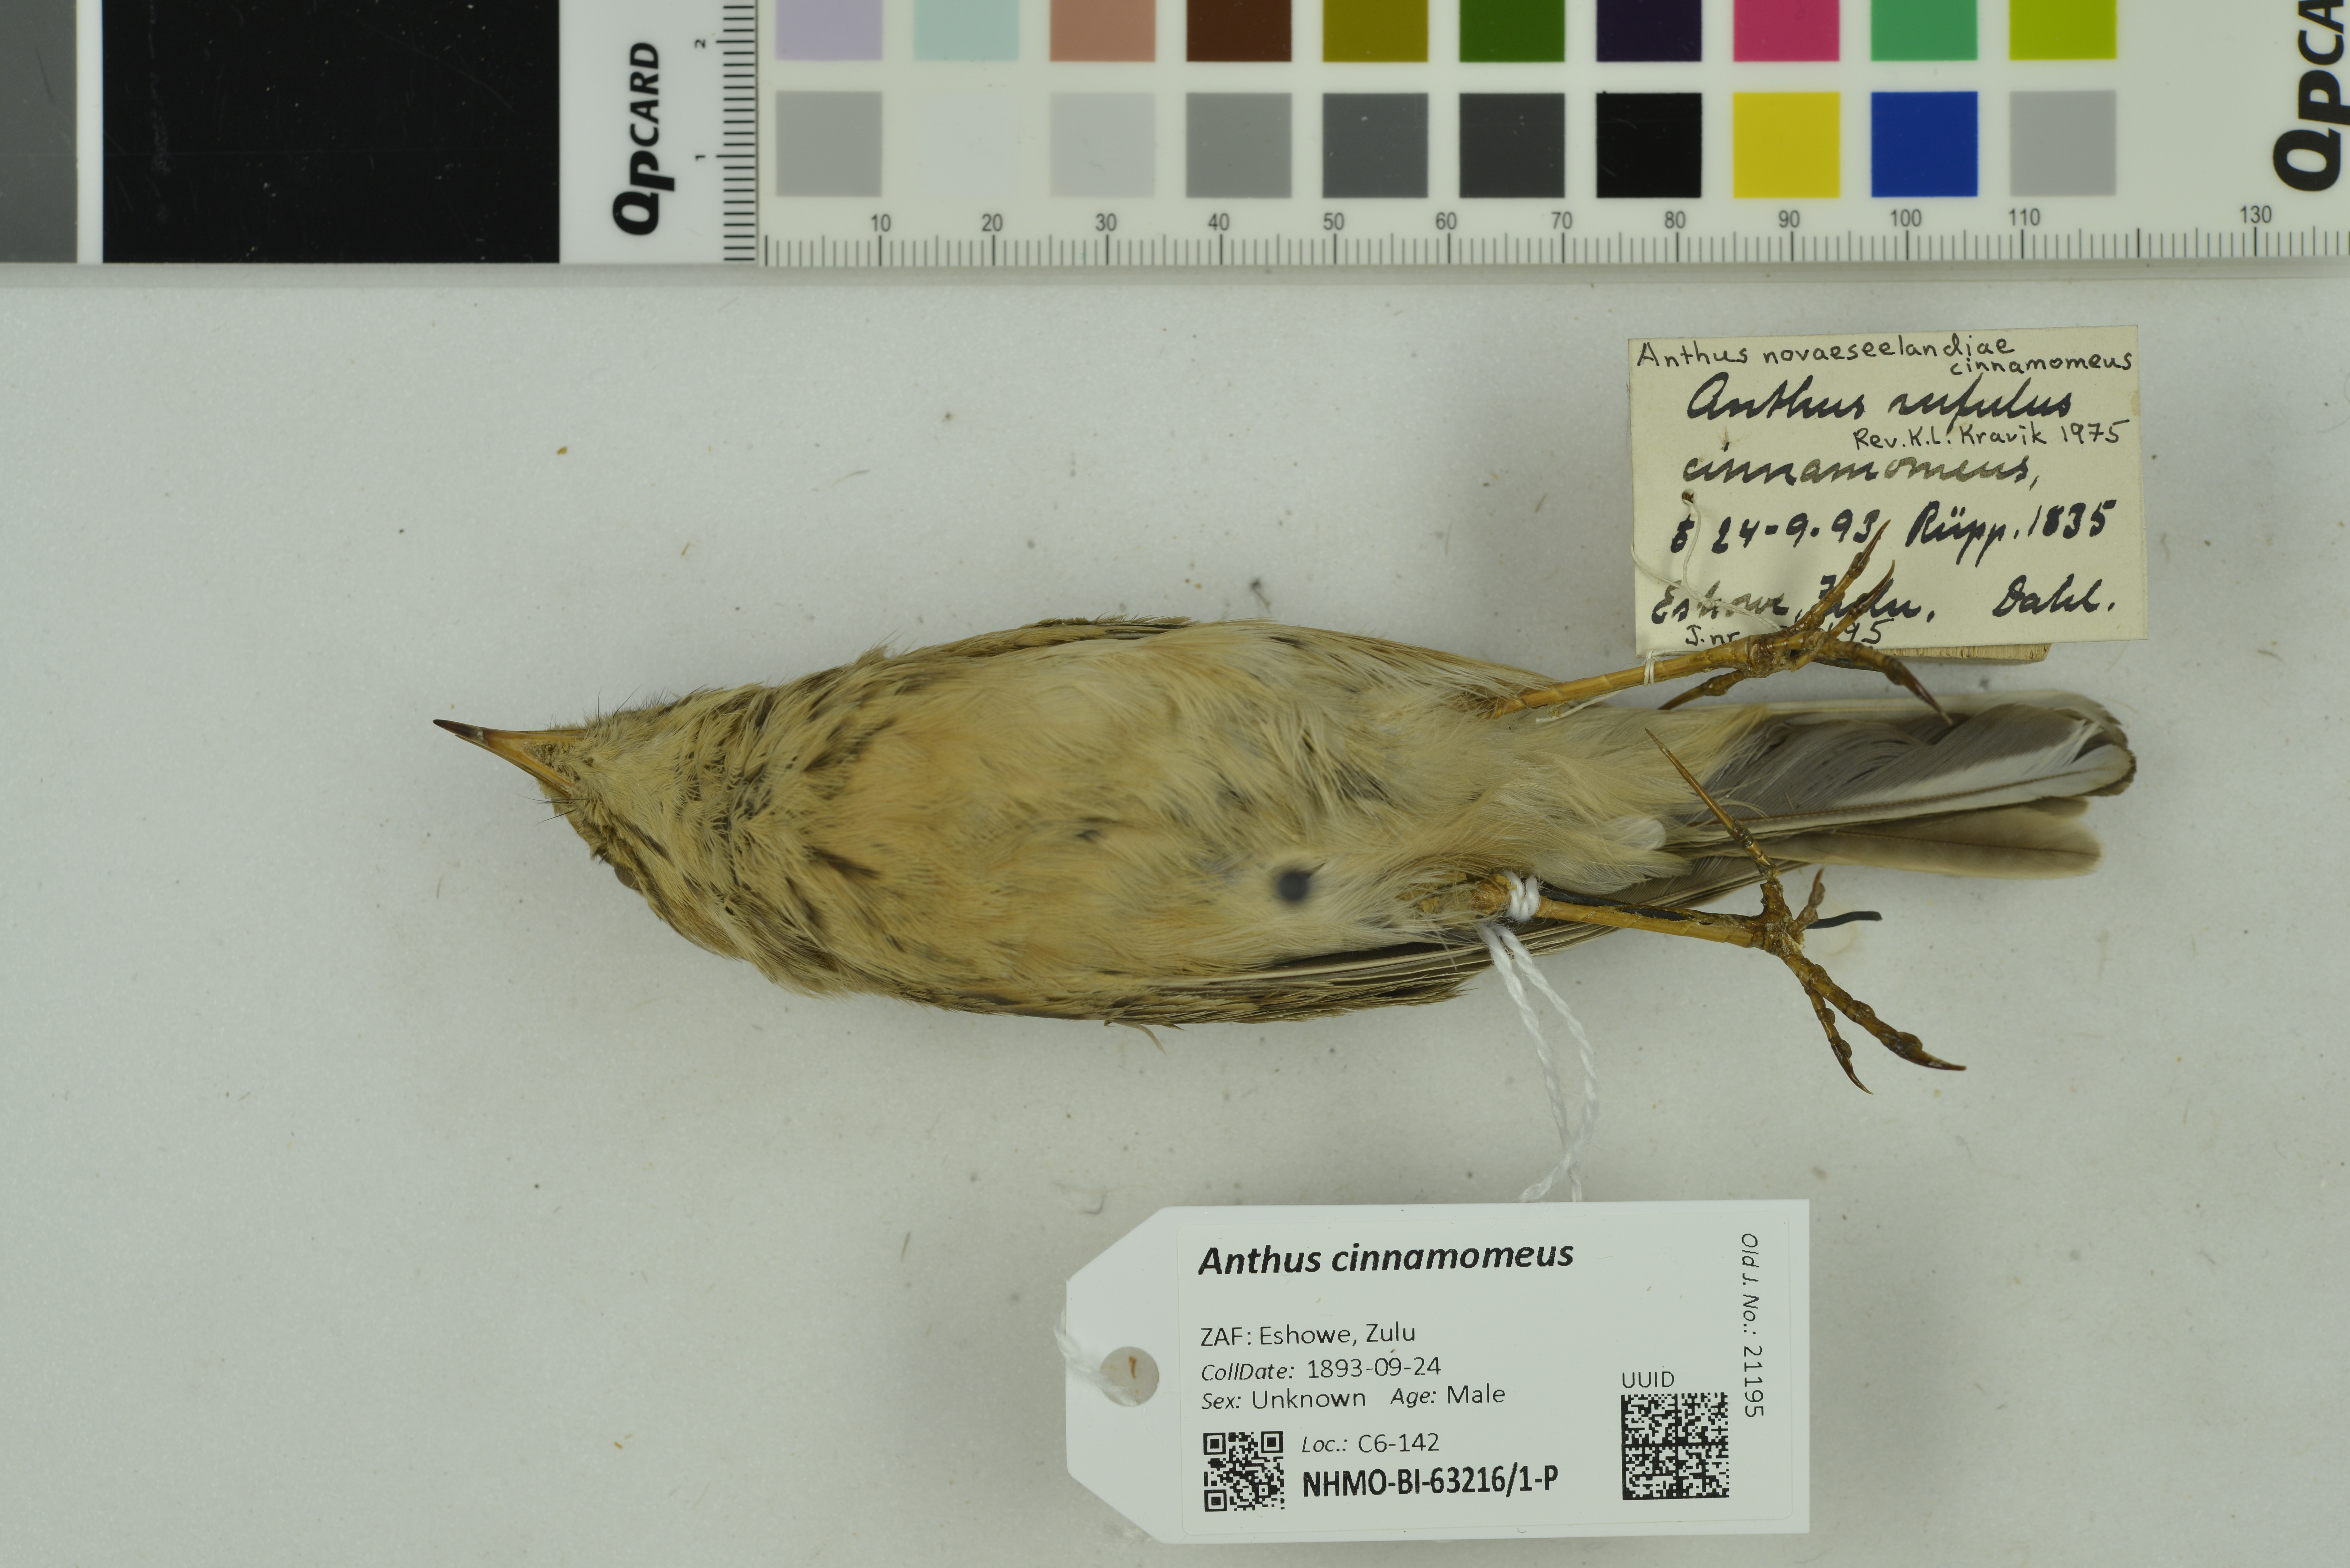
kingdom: Animalia
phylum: Chordata
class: Aves
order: Passeriformes
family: Motacillidae
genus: Anthus
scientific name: Anthus cinnamomeus
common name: African pipit
